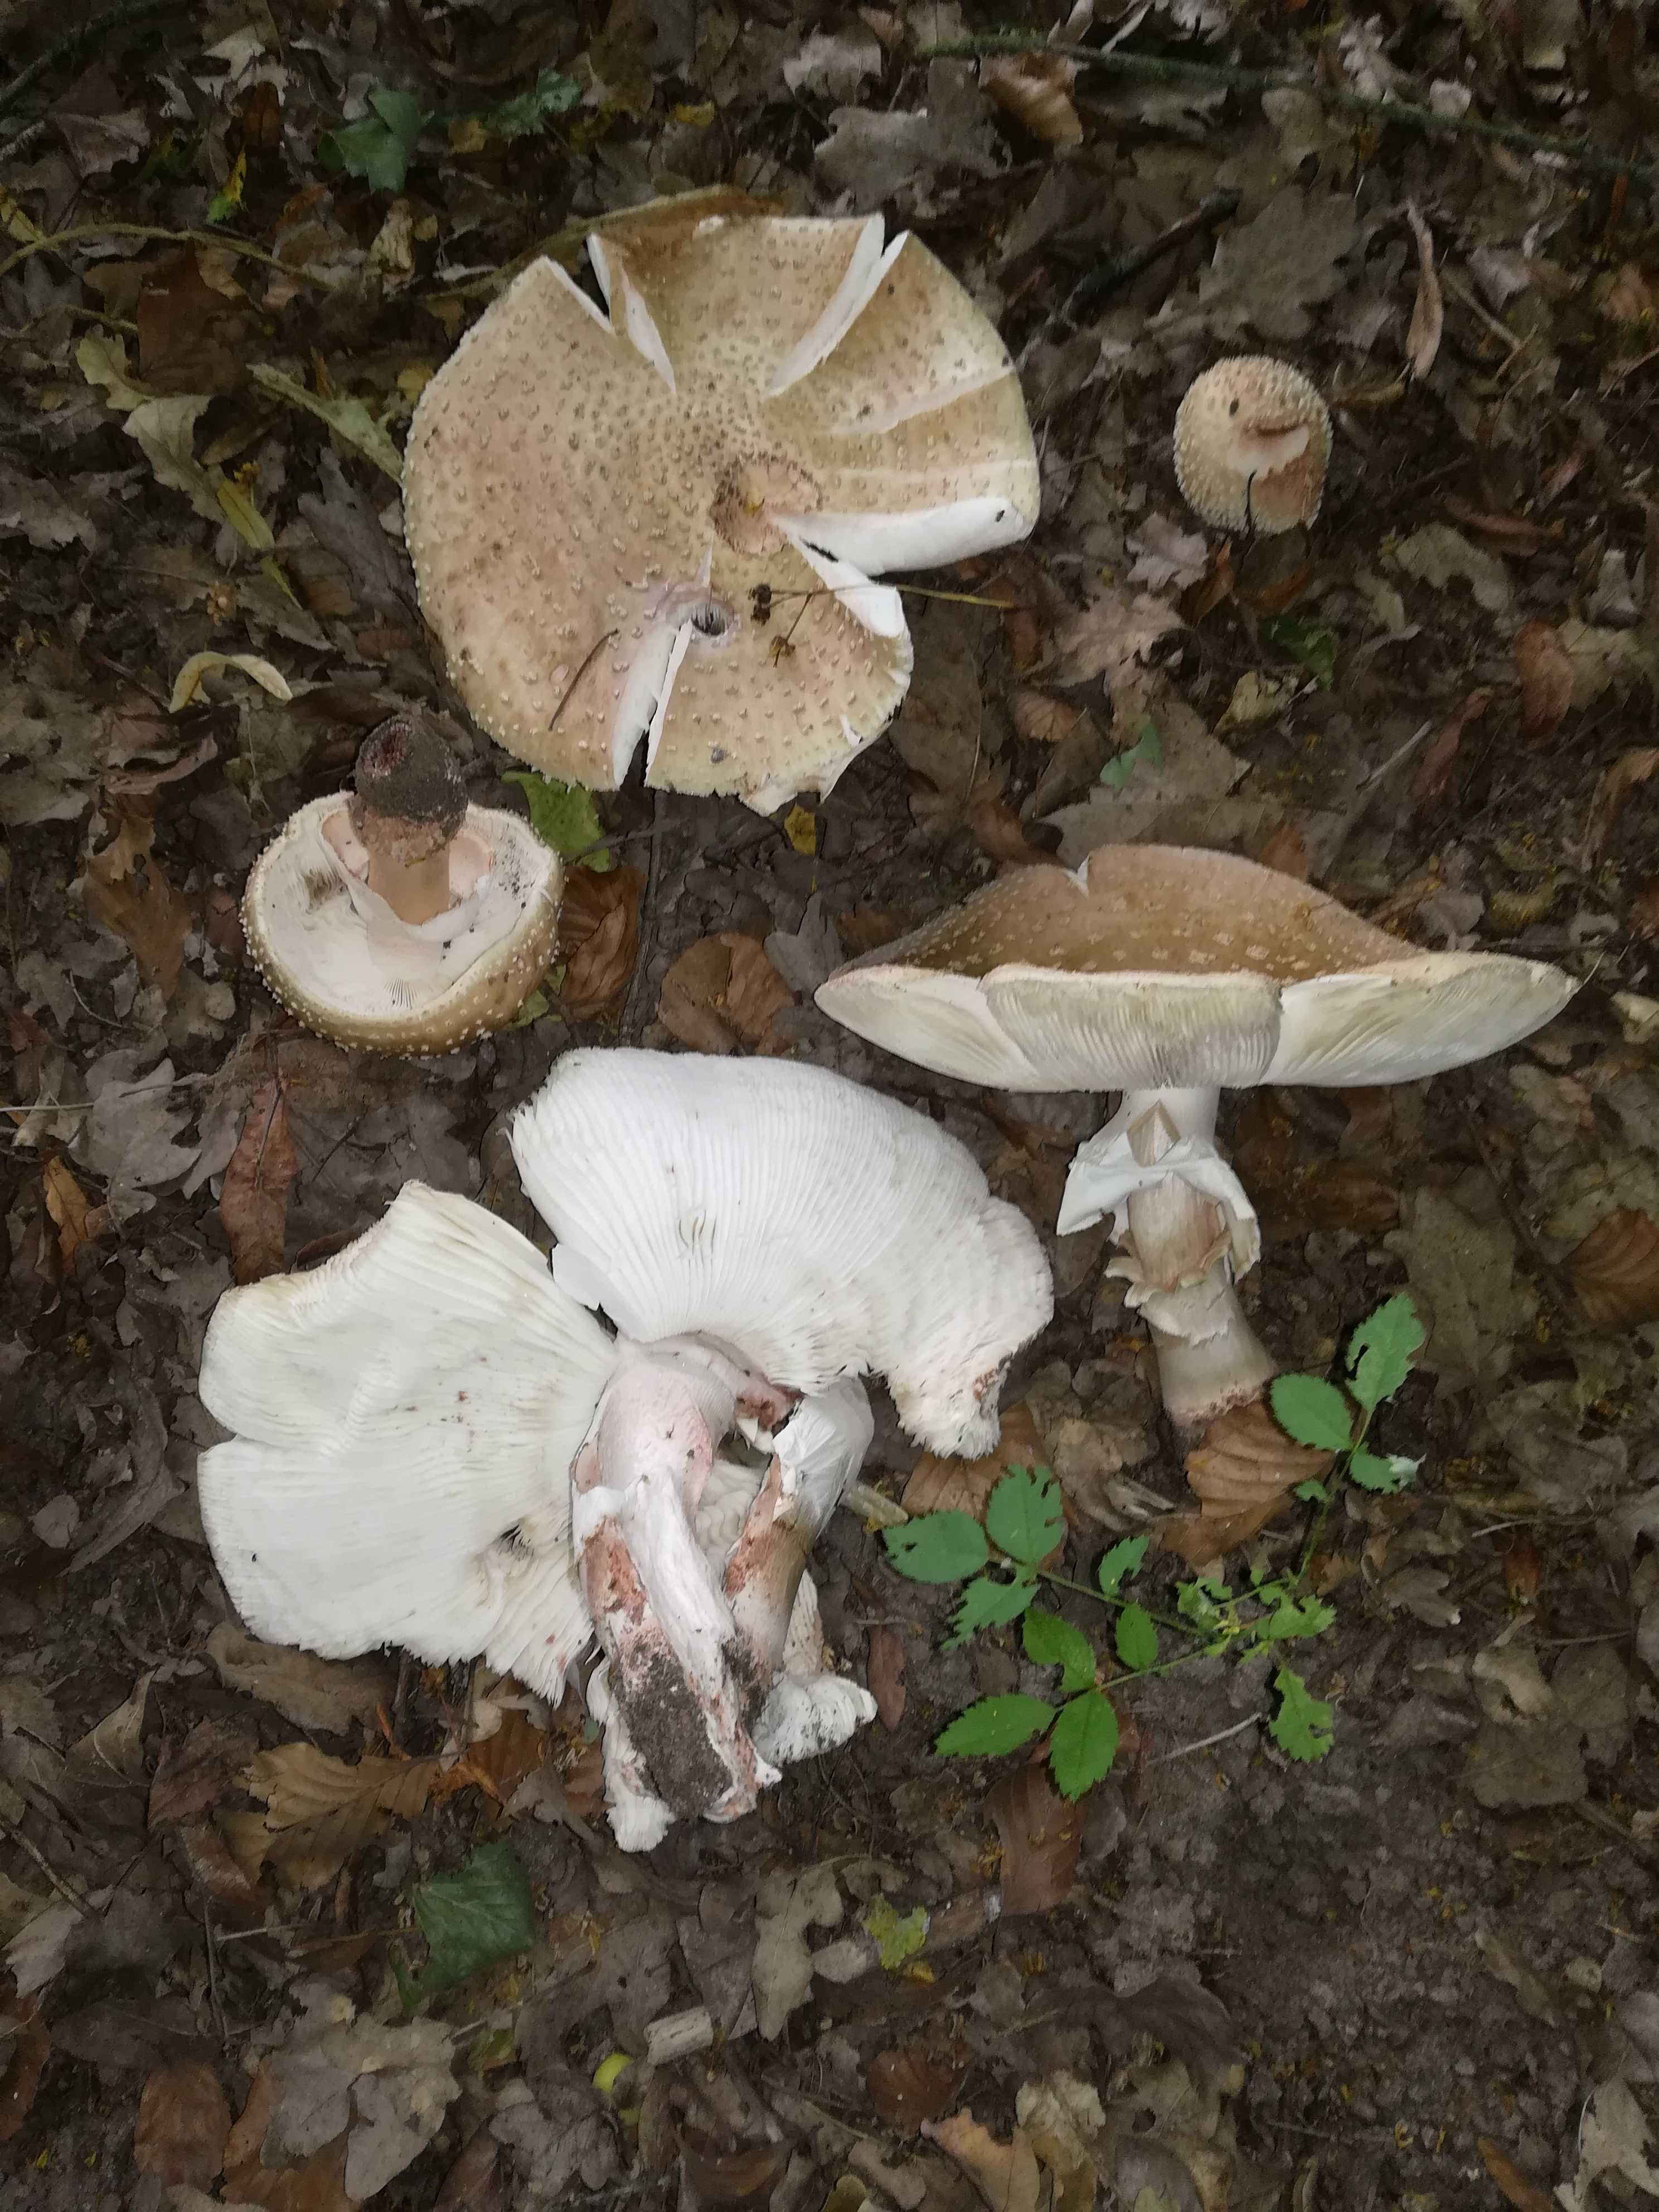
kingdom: Fungi
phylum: Basidiomycota
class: Agaricomycetes
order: Agaricales
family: Amanitaceae
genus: Amanita
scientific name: Amanita rubescens
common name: rødmende fluesvamp
